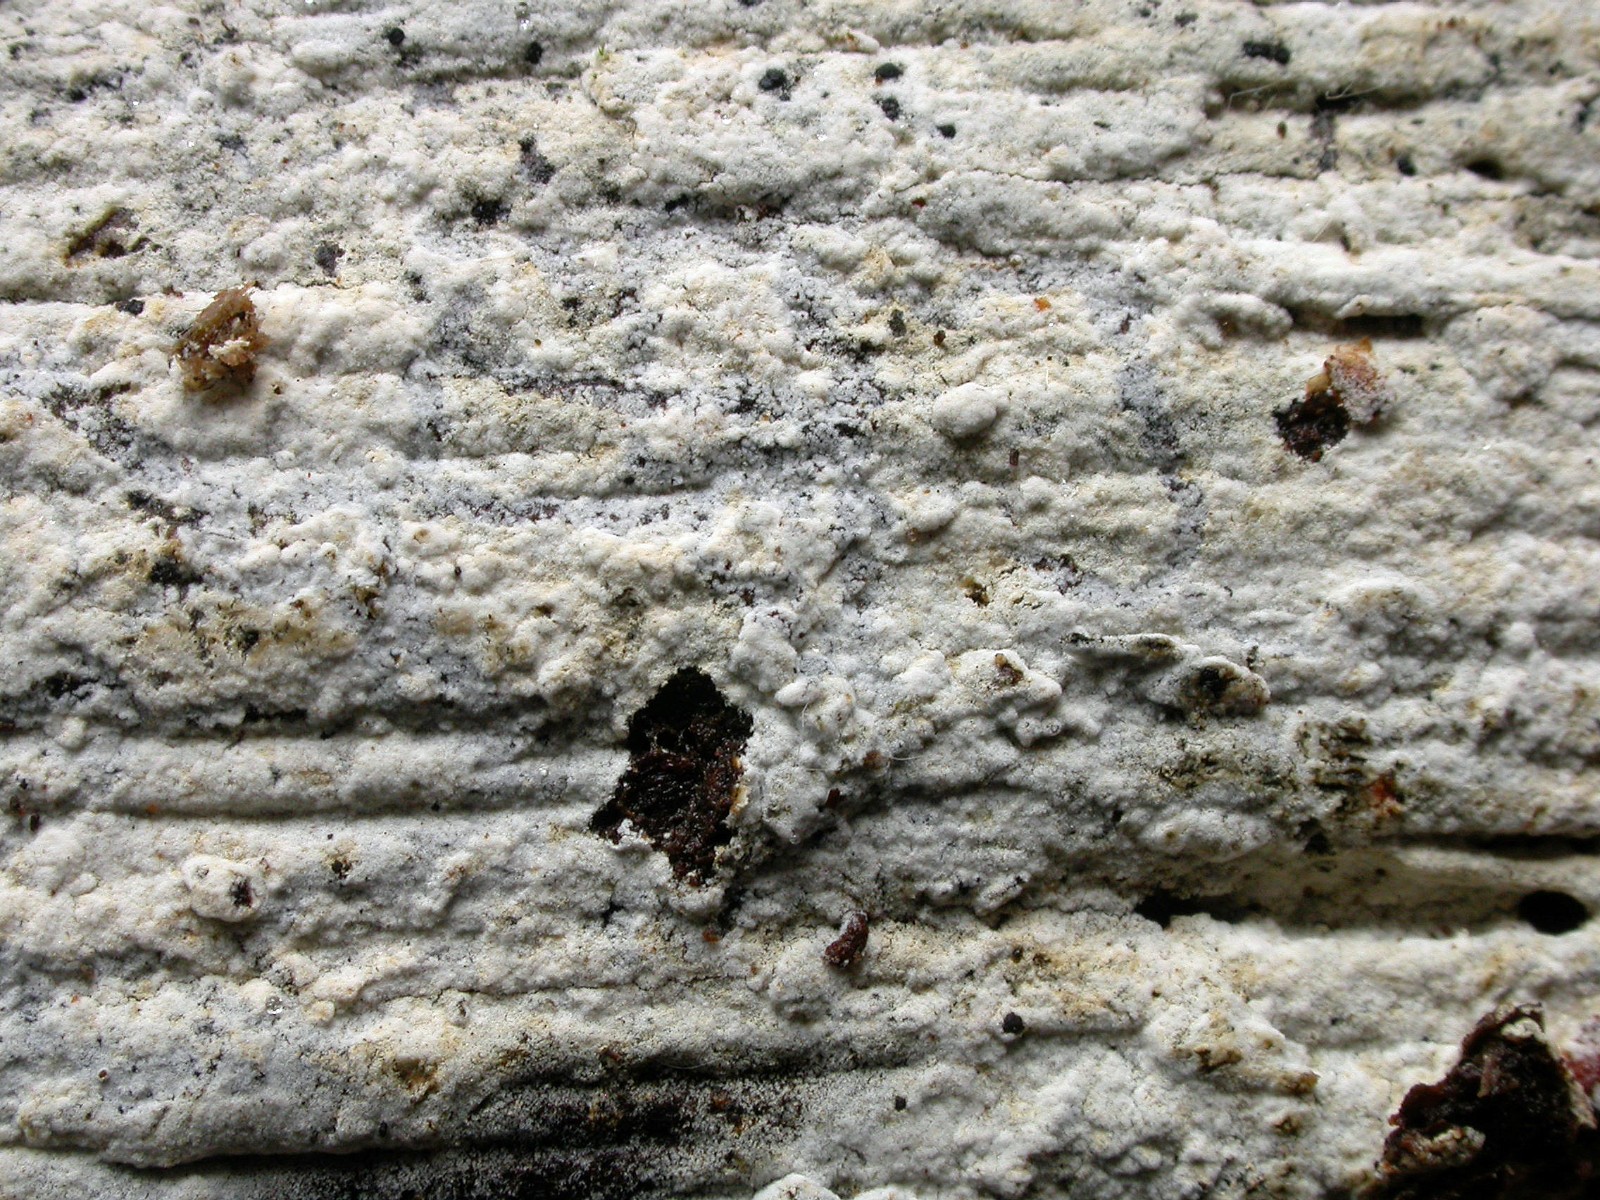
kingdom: Fungi
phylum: Basidiomycota
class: Agaricomycetes
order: Cantharellales
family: Botryobasidiaceae
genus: Botryobasidium
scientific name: Botryobasidium subcoronatum
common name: almindelig spindhinde
